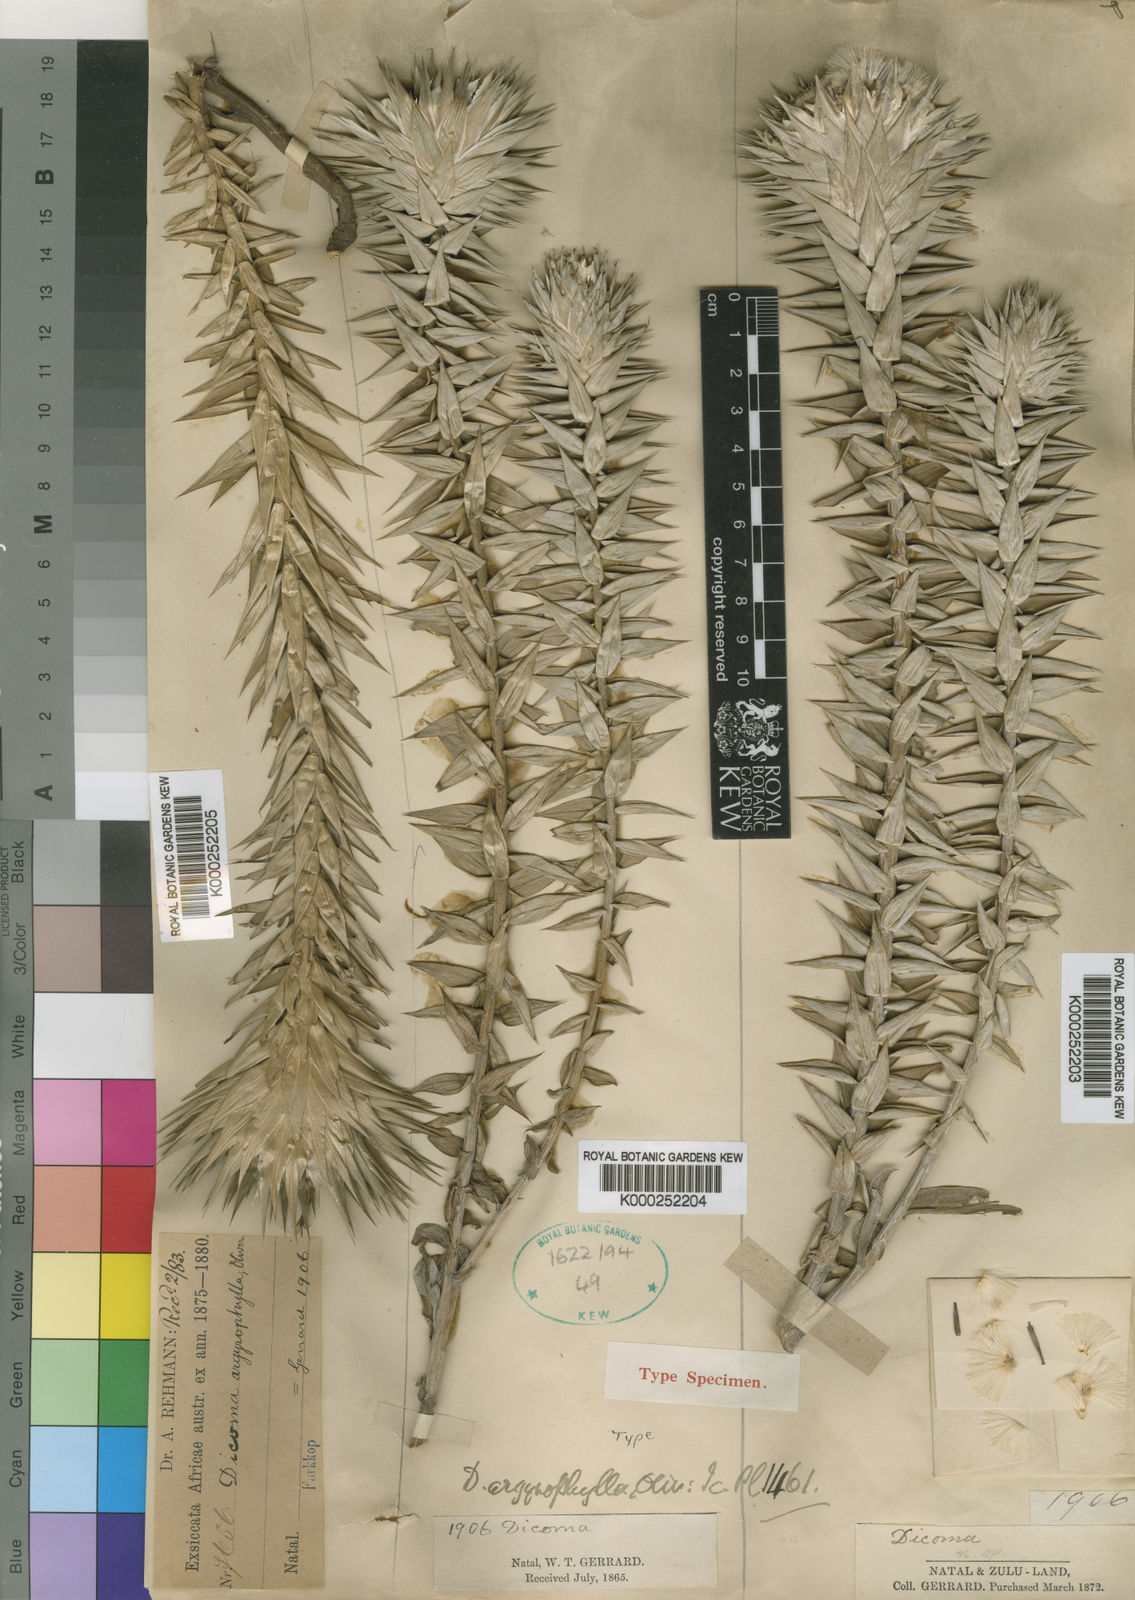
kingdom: Plantae
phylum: Tracheophyta
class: Magnoliopsida
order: Asterales
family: Asteraceae
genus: Macledium
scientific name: Macledium zeyheri
